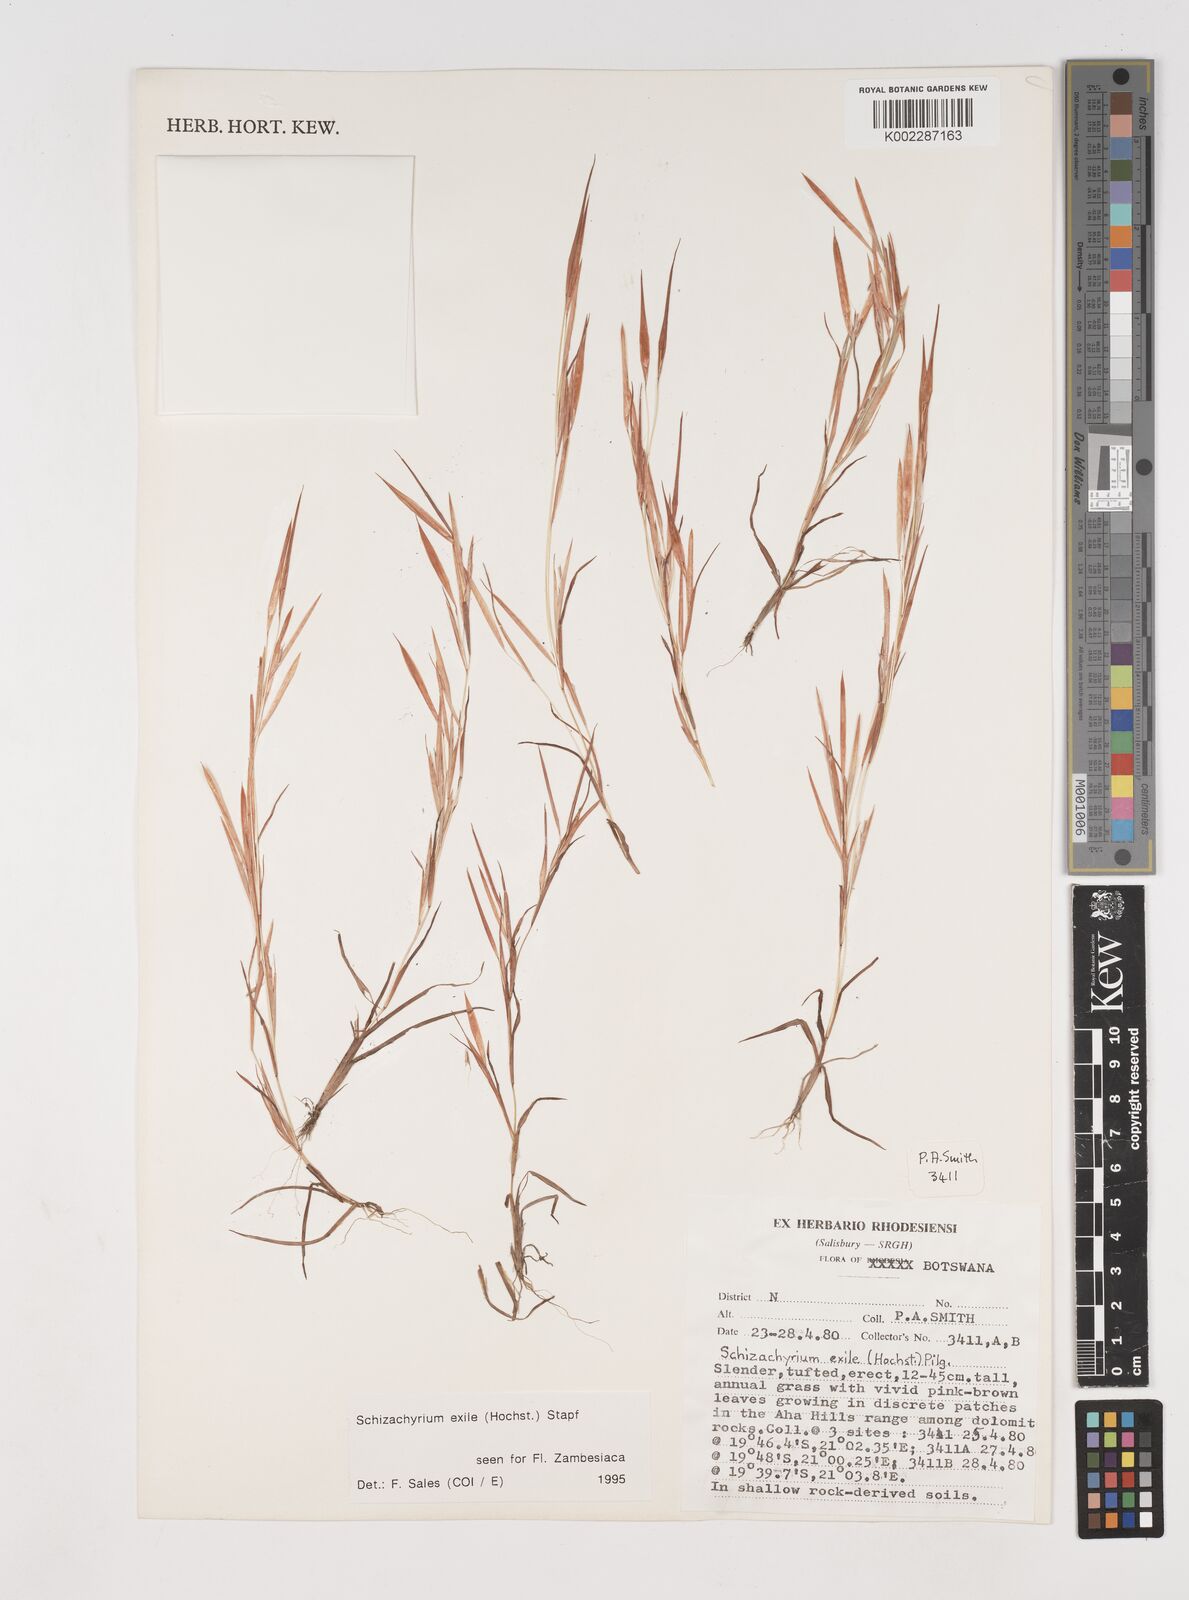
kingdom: Plantae
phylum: Tracheophyta
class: Liliopsida
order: Poales
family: Poaceae
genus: Schizachyrium
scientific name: Schizachyrium exile
